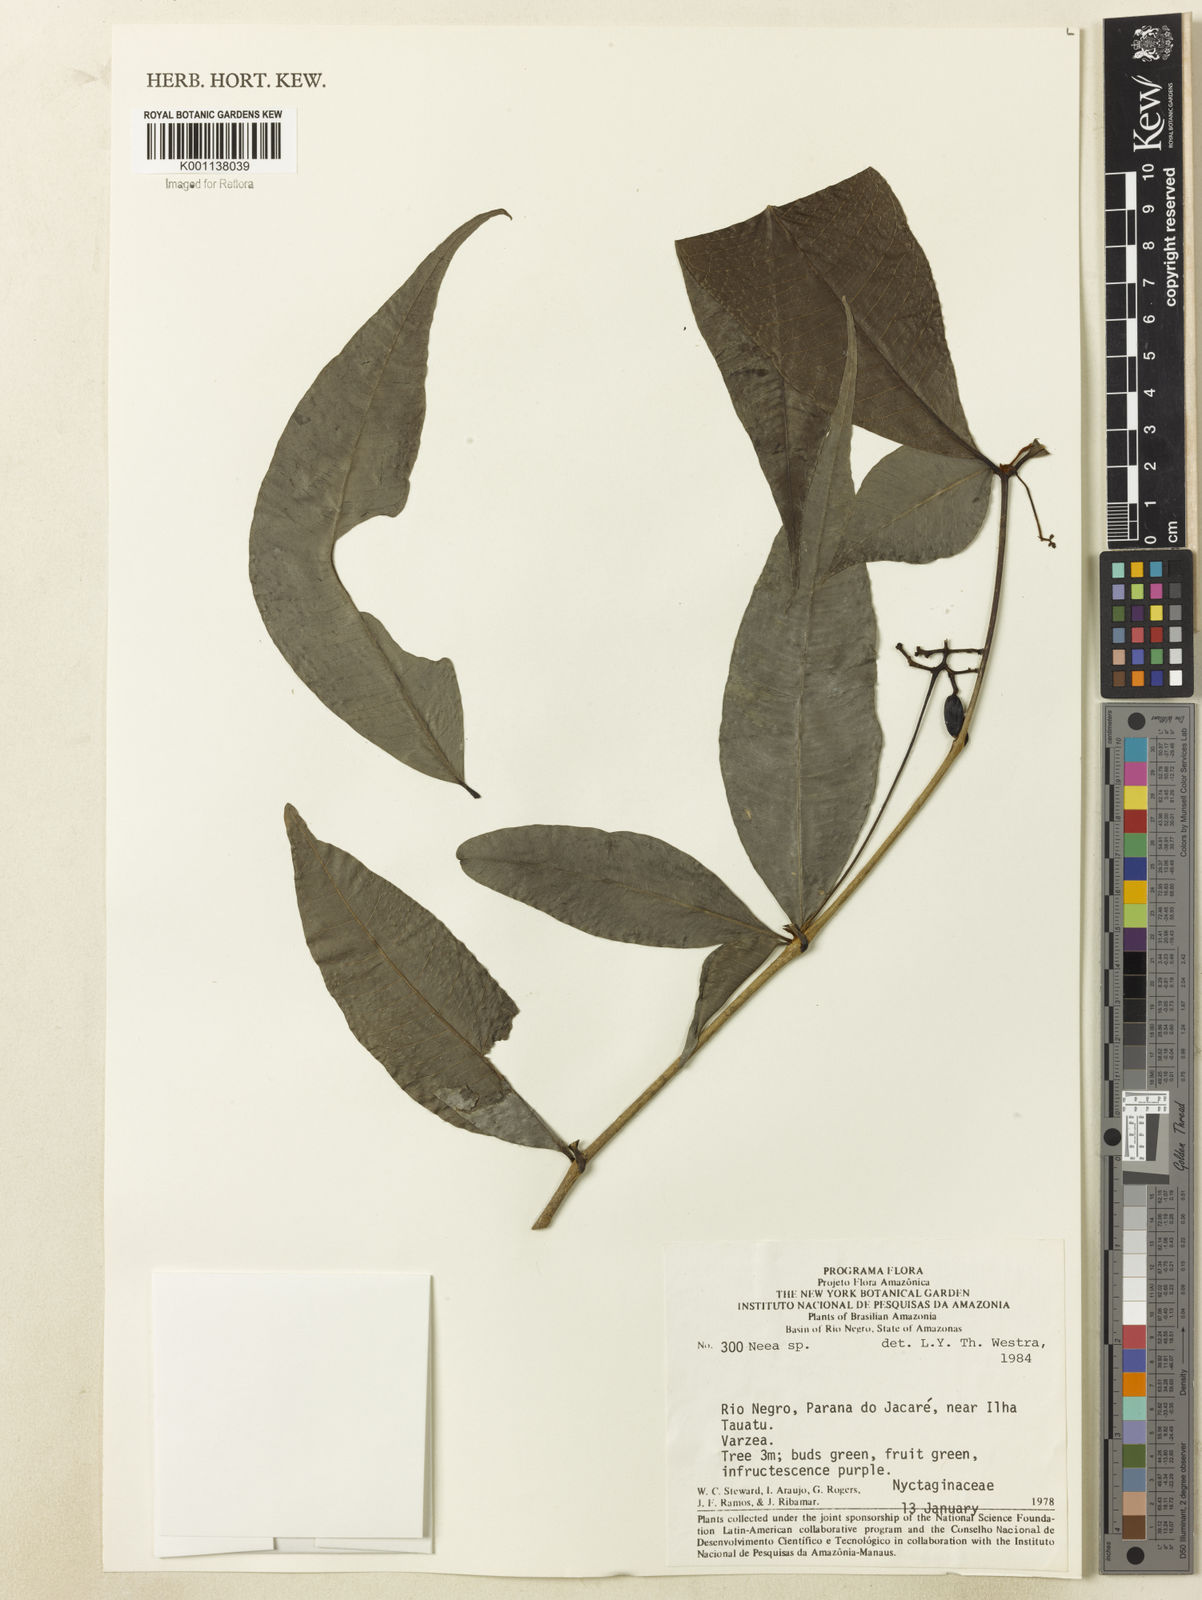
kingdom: Plantae
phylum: Tracheophyta
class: Magnoliopsida
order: Caryophyllales
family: Nyctaginaceae
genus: Neea
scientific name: Neea
